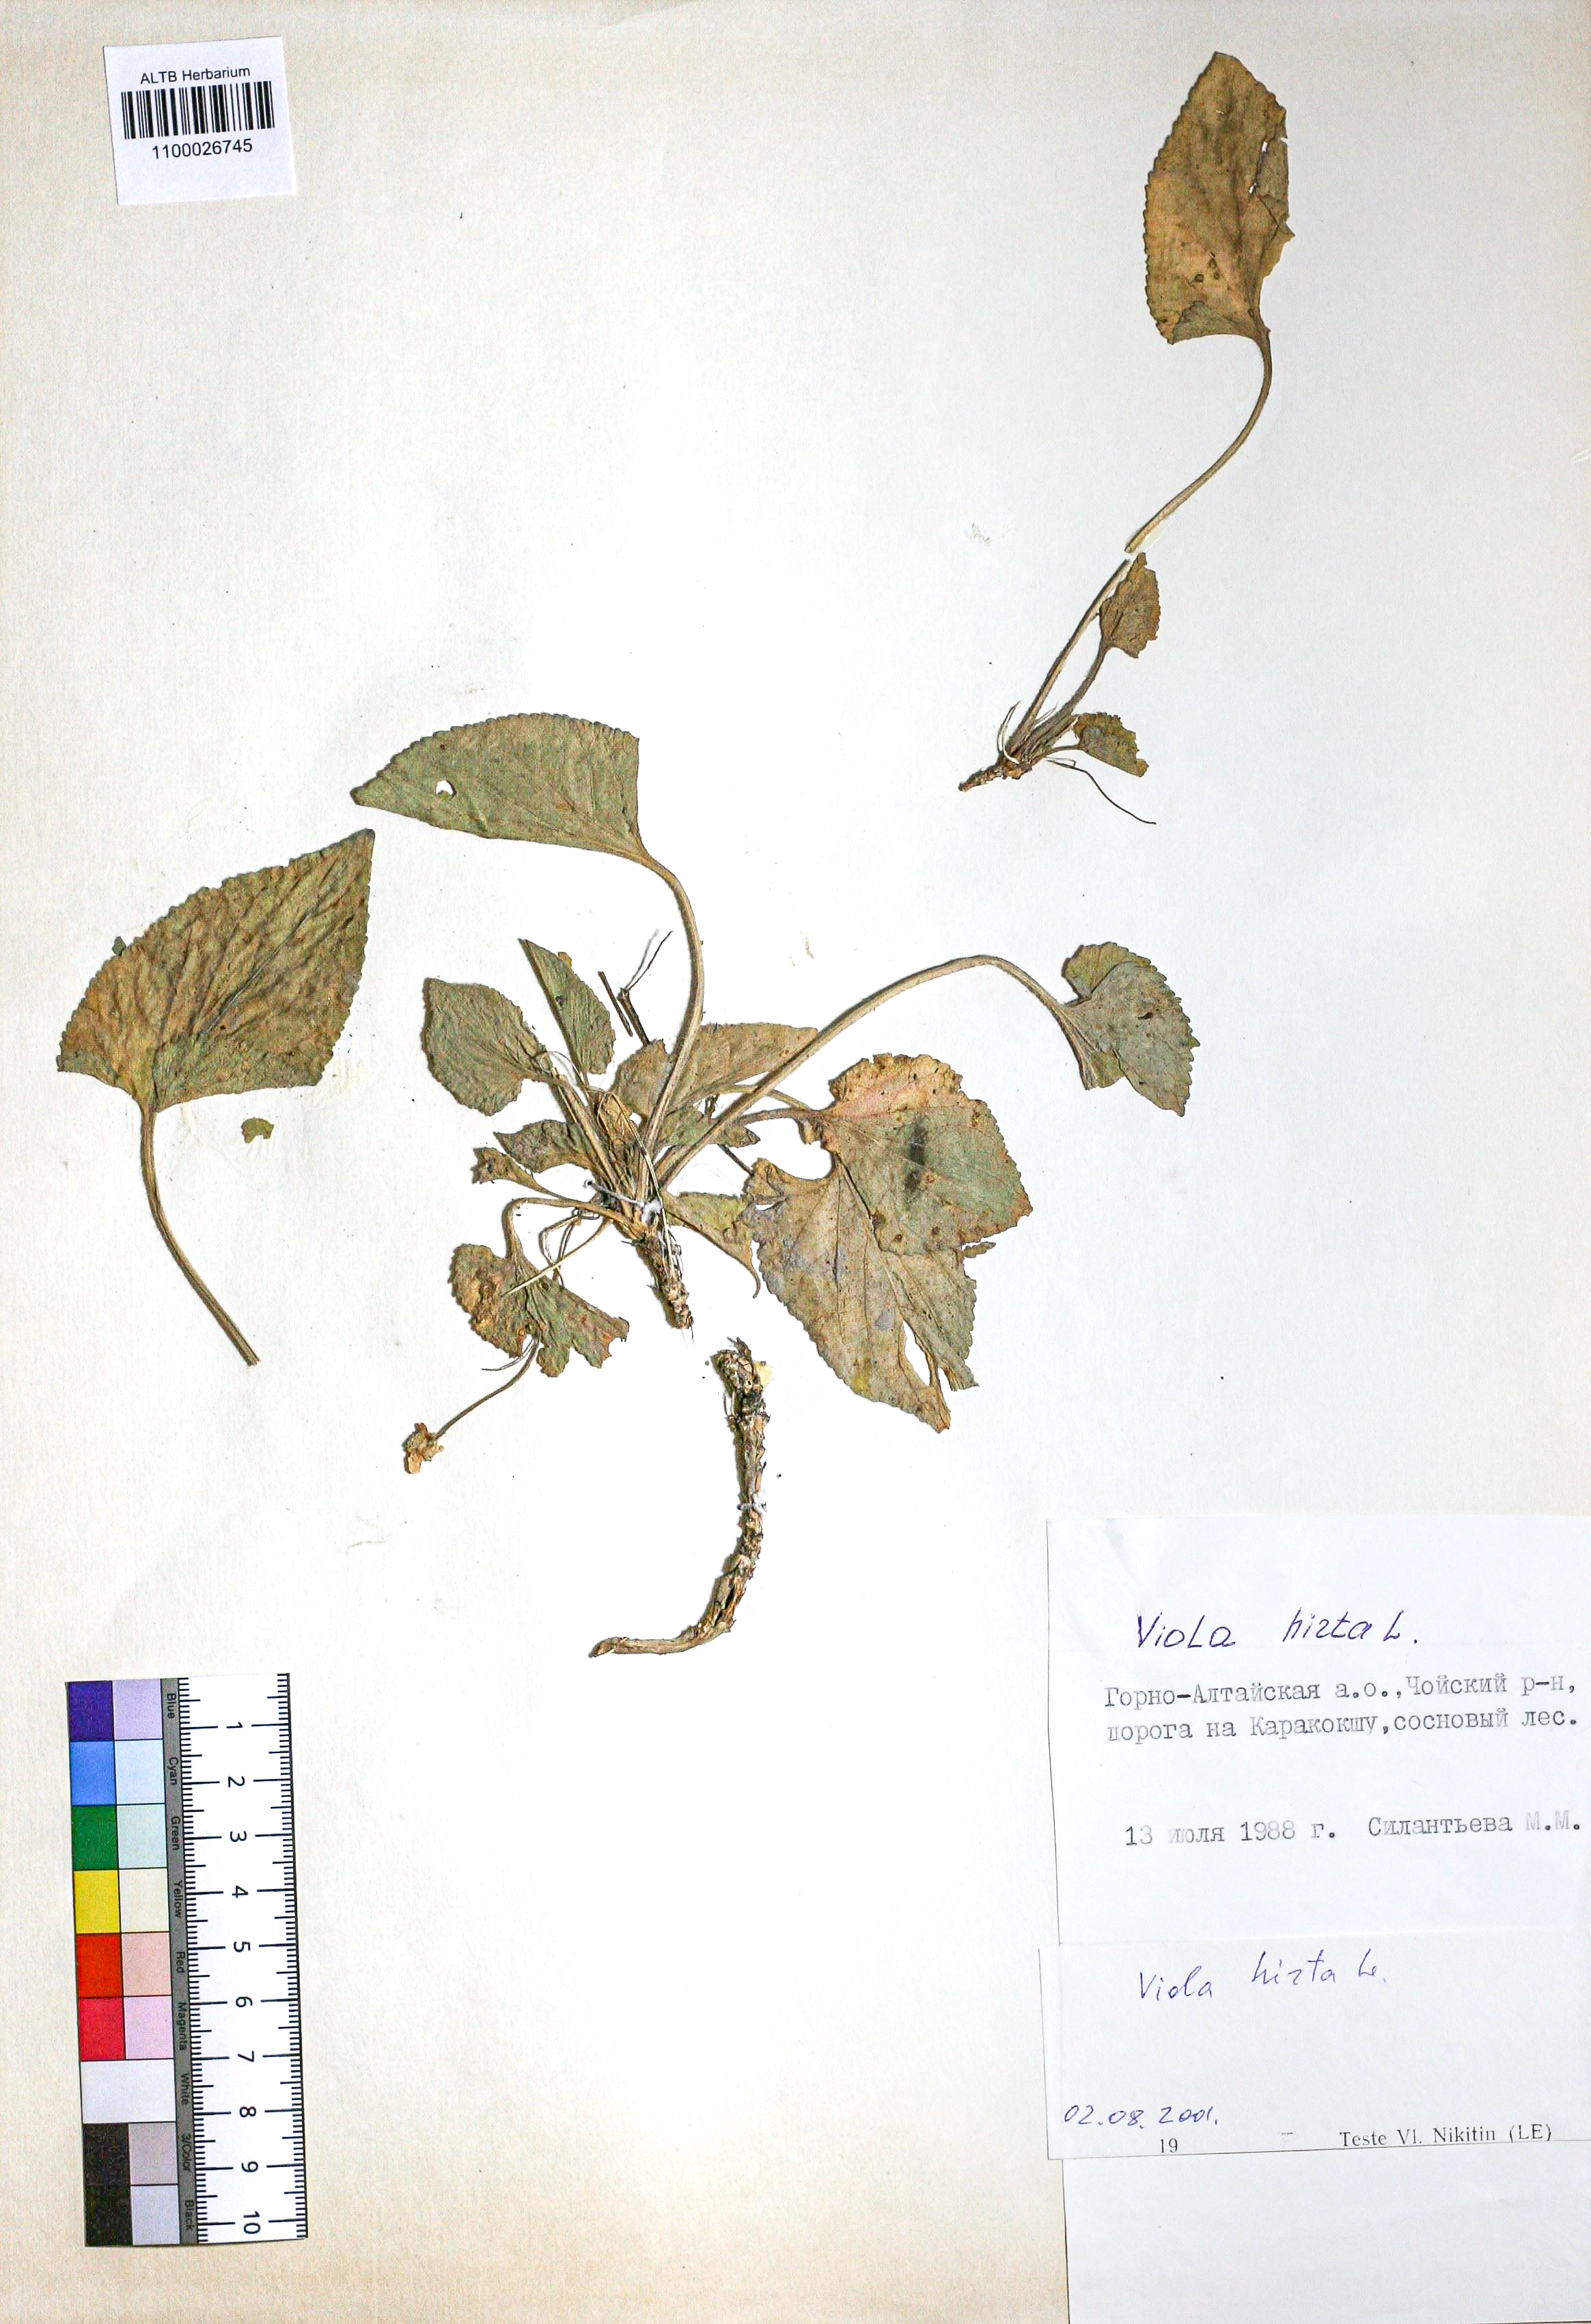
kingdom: Plantae
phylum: Tracheophyta
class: Magnoliopsida
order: Malpighiales
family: Violaceae
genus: Viola
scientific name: Viola hirta
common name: Hairy violet
